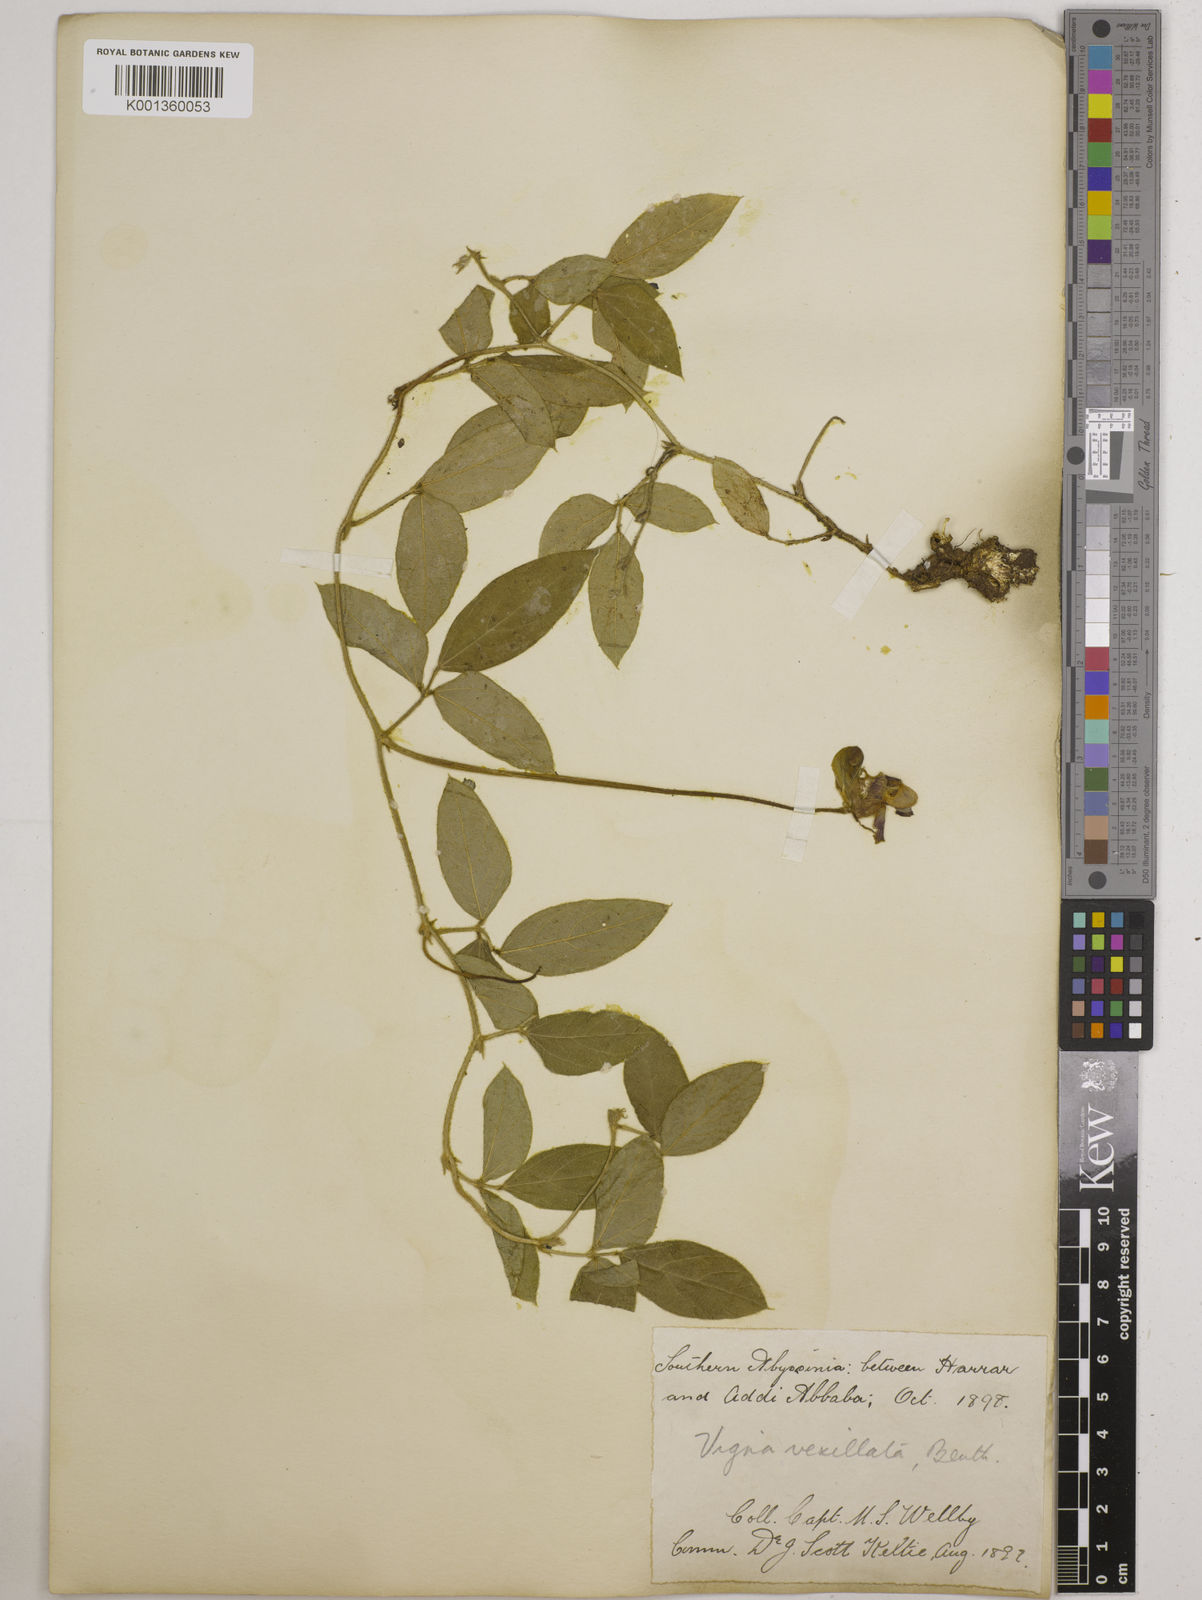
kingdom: Plantae
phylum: Tracheophyta
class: Magnoliopsida
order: Fabales
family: Fabaceae
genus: Vigna
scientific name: Vigna vexillata
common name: Zombi pea
